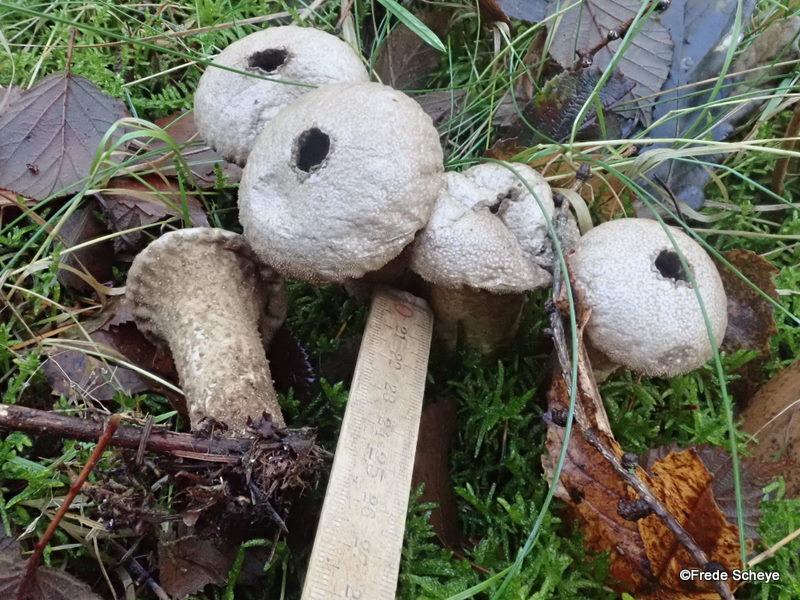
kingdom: Fungi
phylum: Basidiomycota
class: Agaricomycetes
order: Agaricales
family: Lycoperdaceae
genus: Lycoperdon
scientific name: Lycoperdon perlatum
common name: krystal-støvbold
